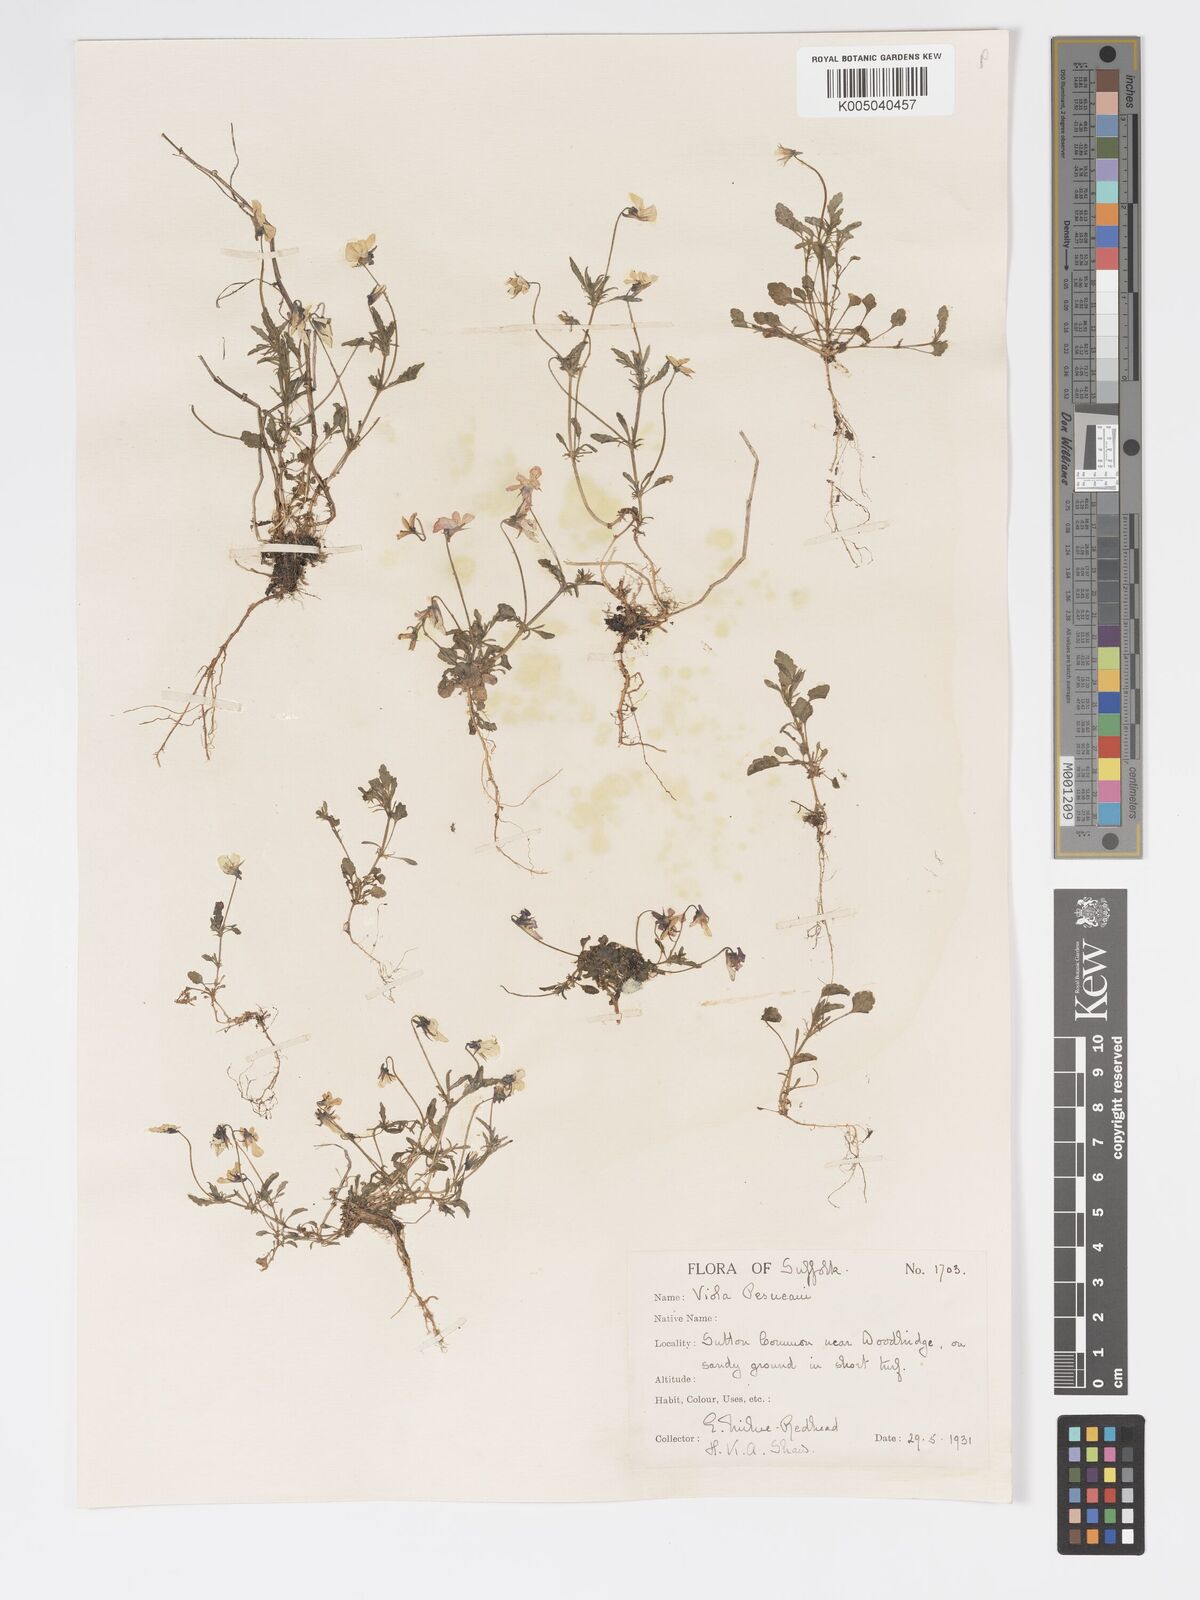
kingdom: Plantae
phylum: Tracheophyta
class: Magnoliopsida
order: Malpighiales
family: Violaceae
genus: Viola
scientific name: Viola arvensis
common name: Field pansy
